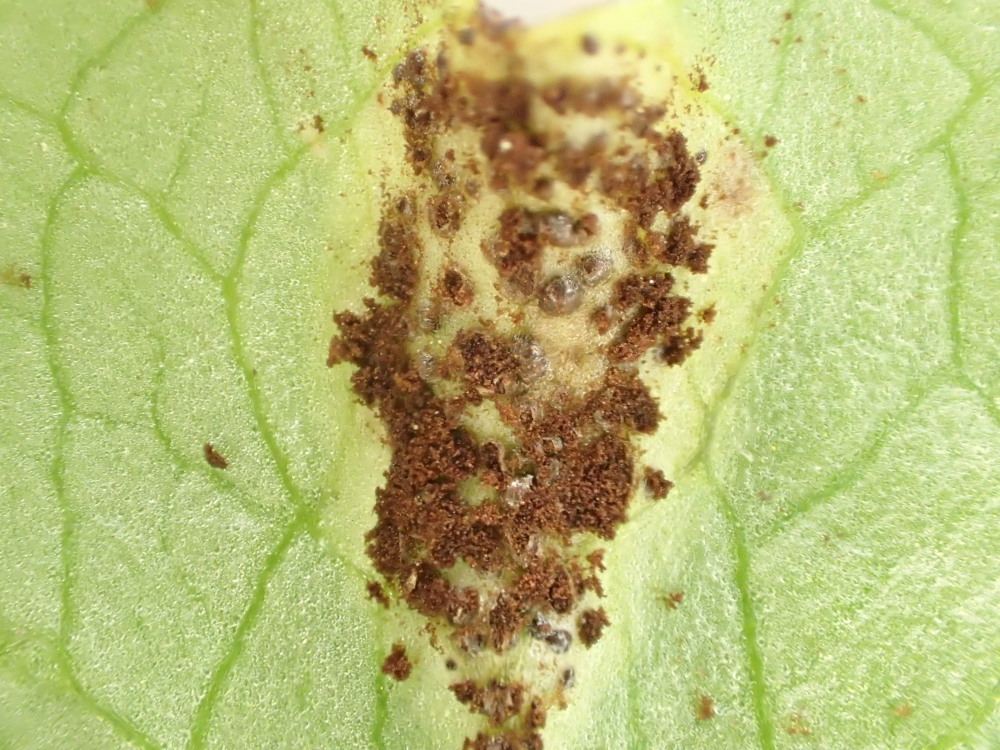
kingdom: Fungi
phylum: Basidiomycota
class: Pucciniomycetes
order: Pucciniales
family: Pucciniaceae
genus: Uromyces
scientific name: Uromyces ficariae
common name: vorterod-encellerust
